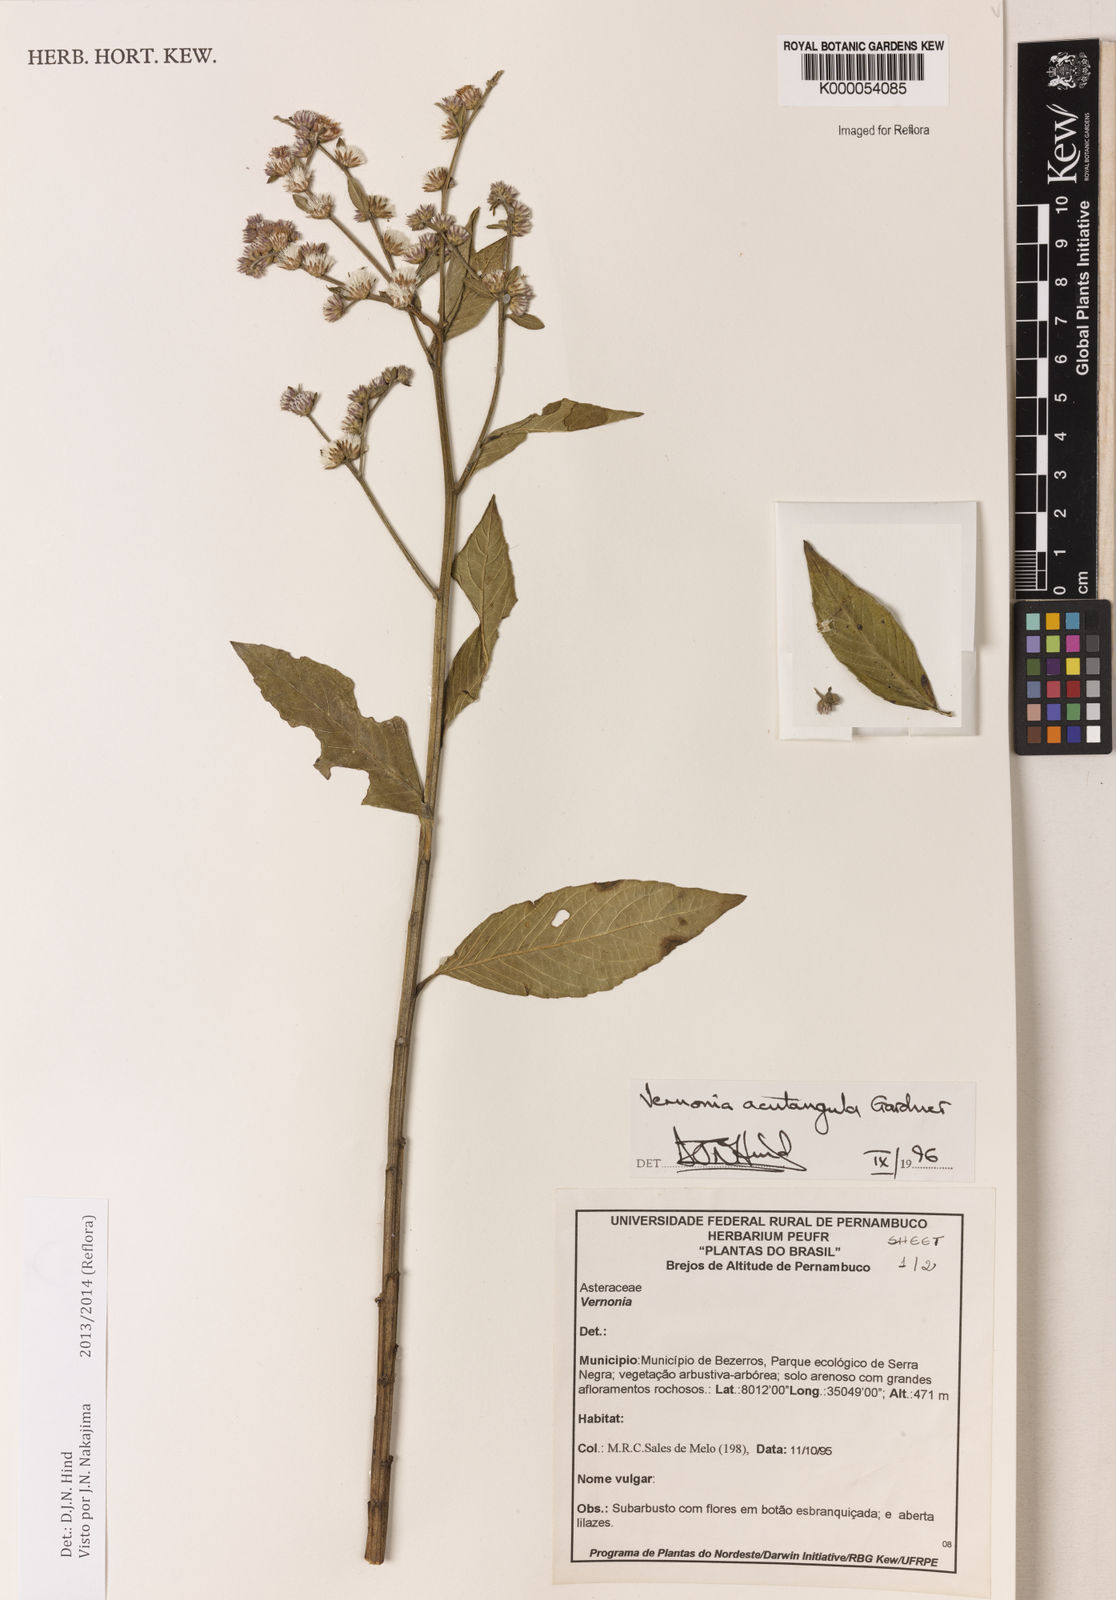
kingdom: Plantae
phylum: Tracheophyta
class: Magnoliopsida
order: Asterales
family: Asteraceae
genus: Lepidaploa
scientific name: Lepidaploa acutangula
